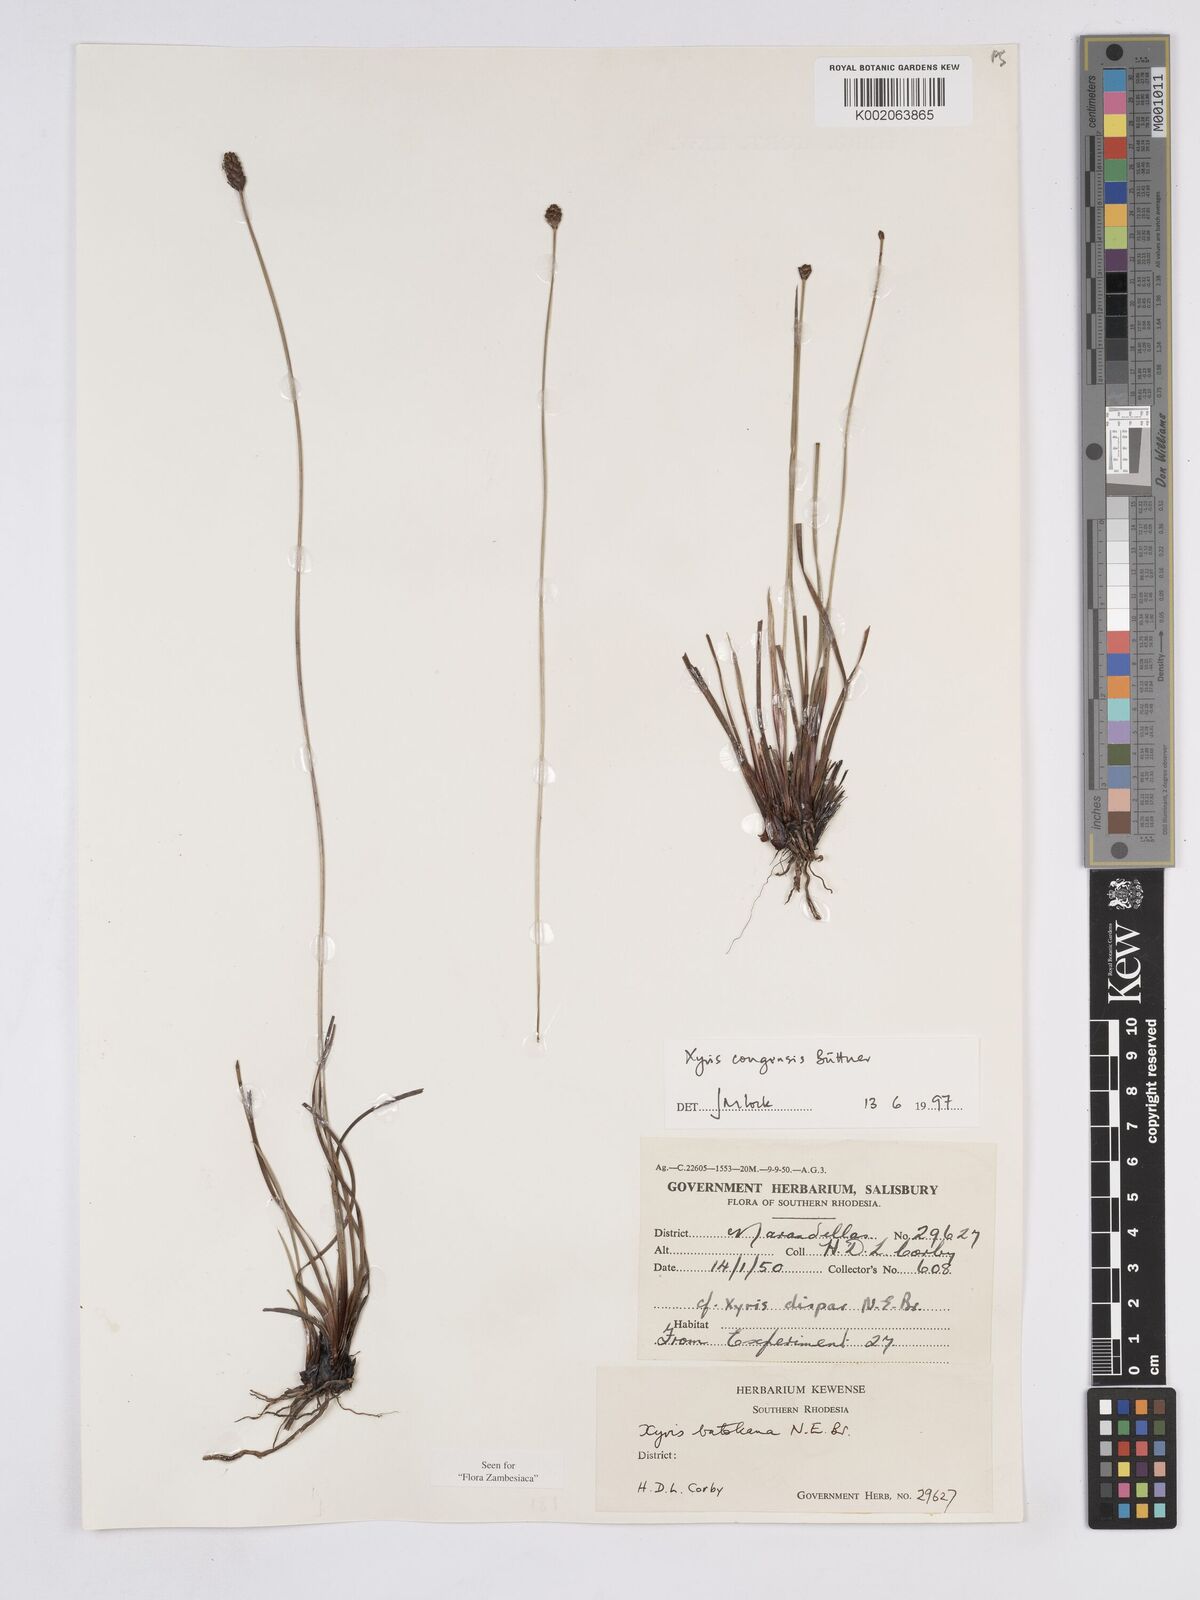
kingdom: Plantae
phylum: Tracheophyta
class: Liliopsida
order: Poales
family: Xyridaceae
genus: Xyris
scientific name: Xyris congensis
